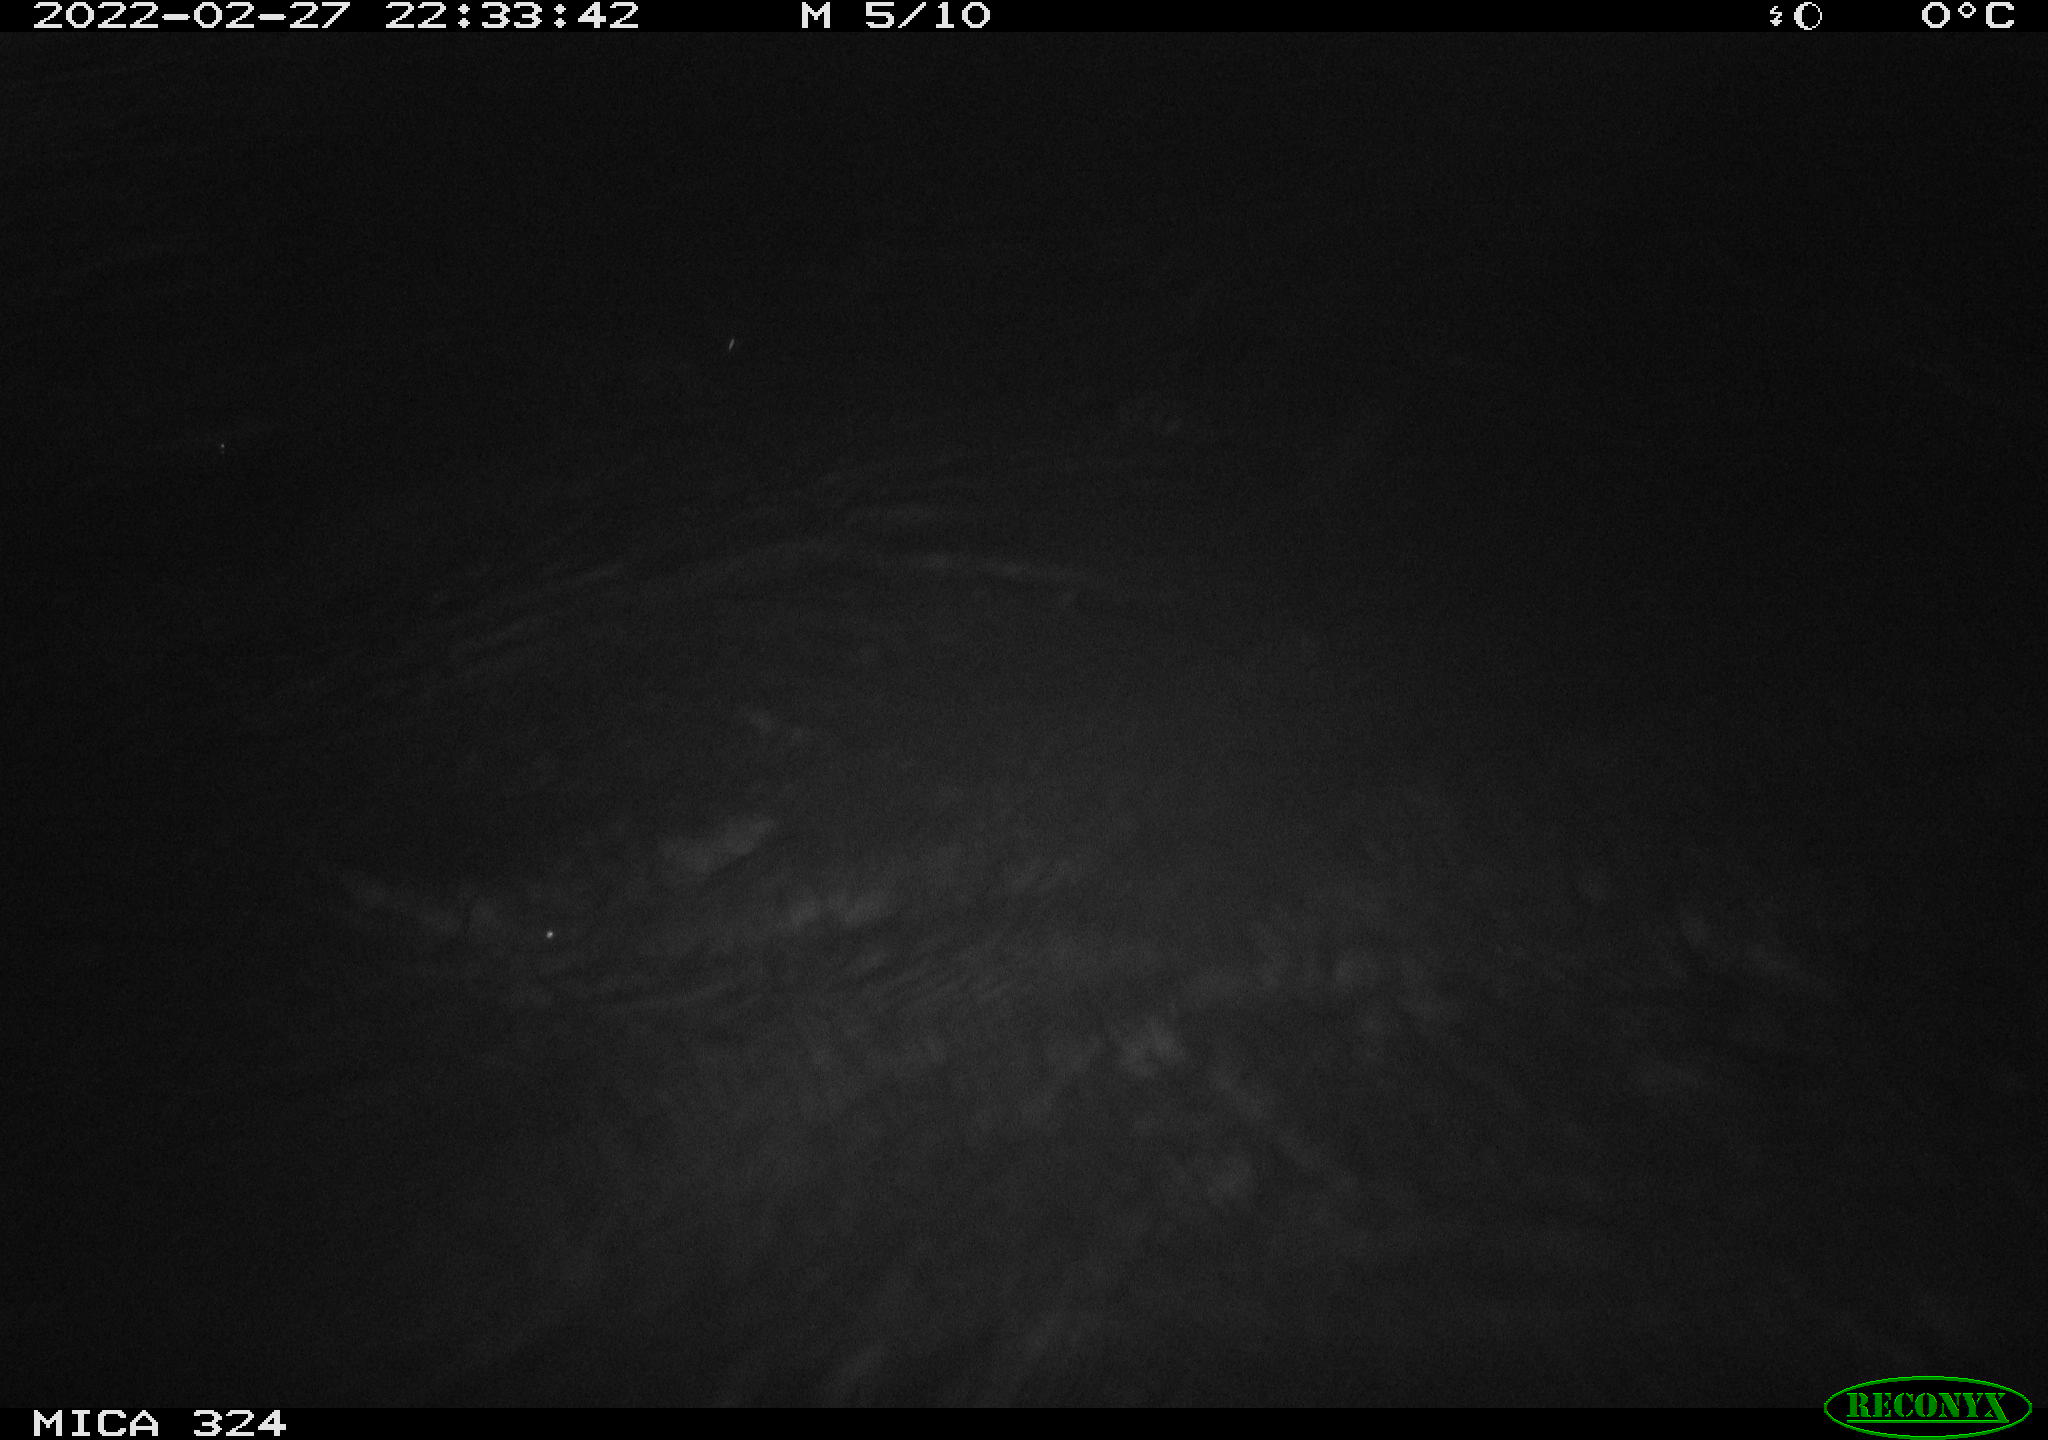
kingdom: Animalia
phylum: Chordata
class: Mammalia
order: Rodentia
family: Cricetidae
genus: Ondatra
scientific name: Ondatra zibethicus
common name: Muskrat
